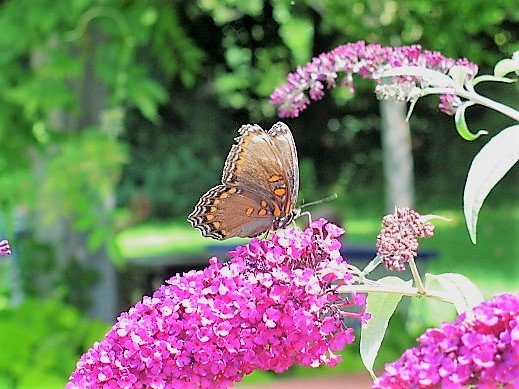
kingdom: Animalia
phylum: Arthropoda
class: Insecta
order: Lepidoptera
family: Nymphalidae
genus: Limenitis
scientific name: Limenitis astyanax
